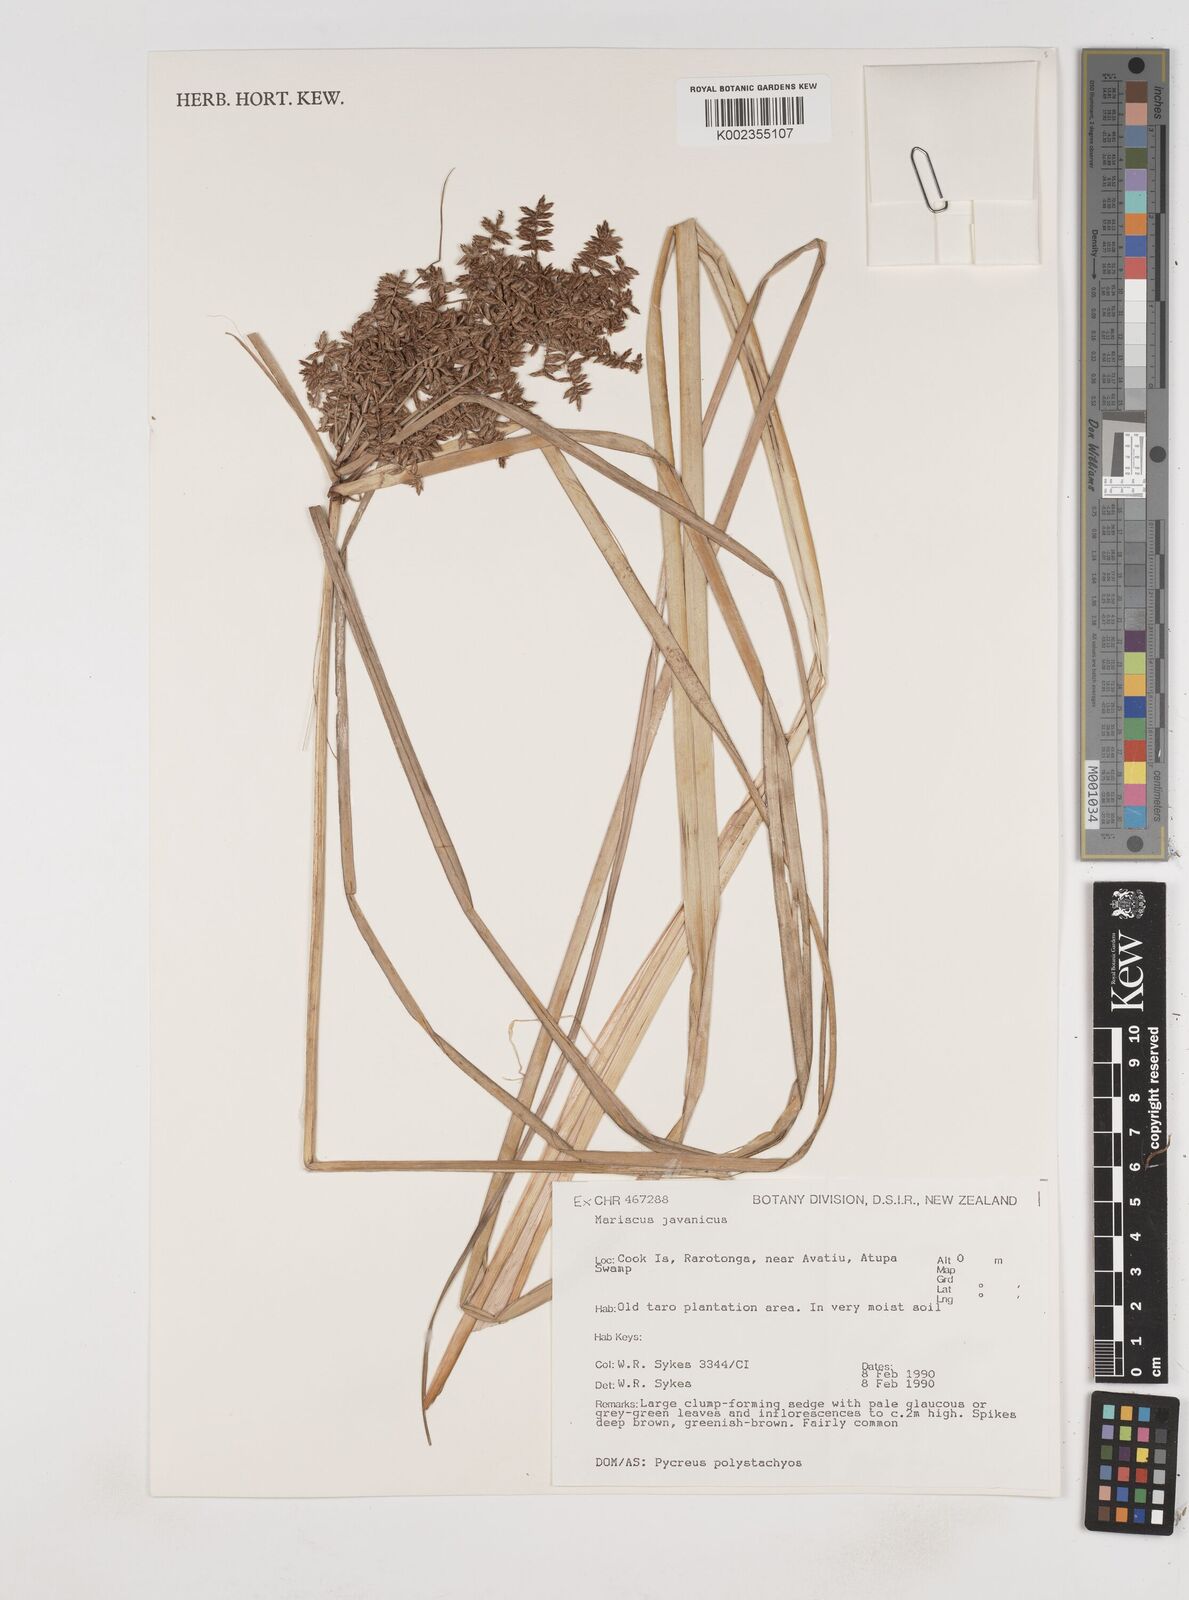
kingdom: Plantae
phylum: Tracheophyta
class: Liliopsida
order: Poales
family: Cyperaceae
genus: Cyperus
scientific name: Cyperus javanicus
